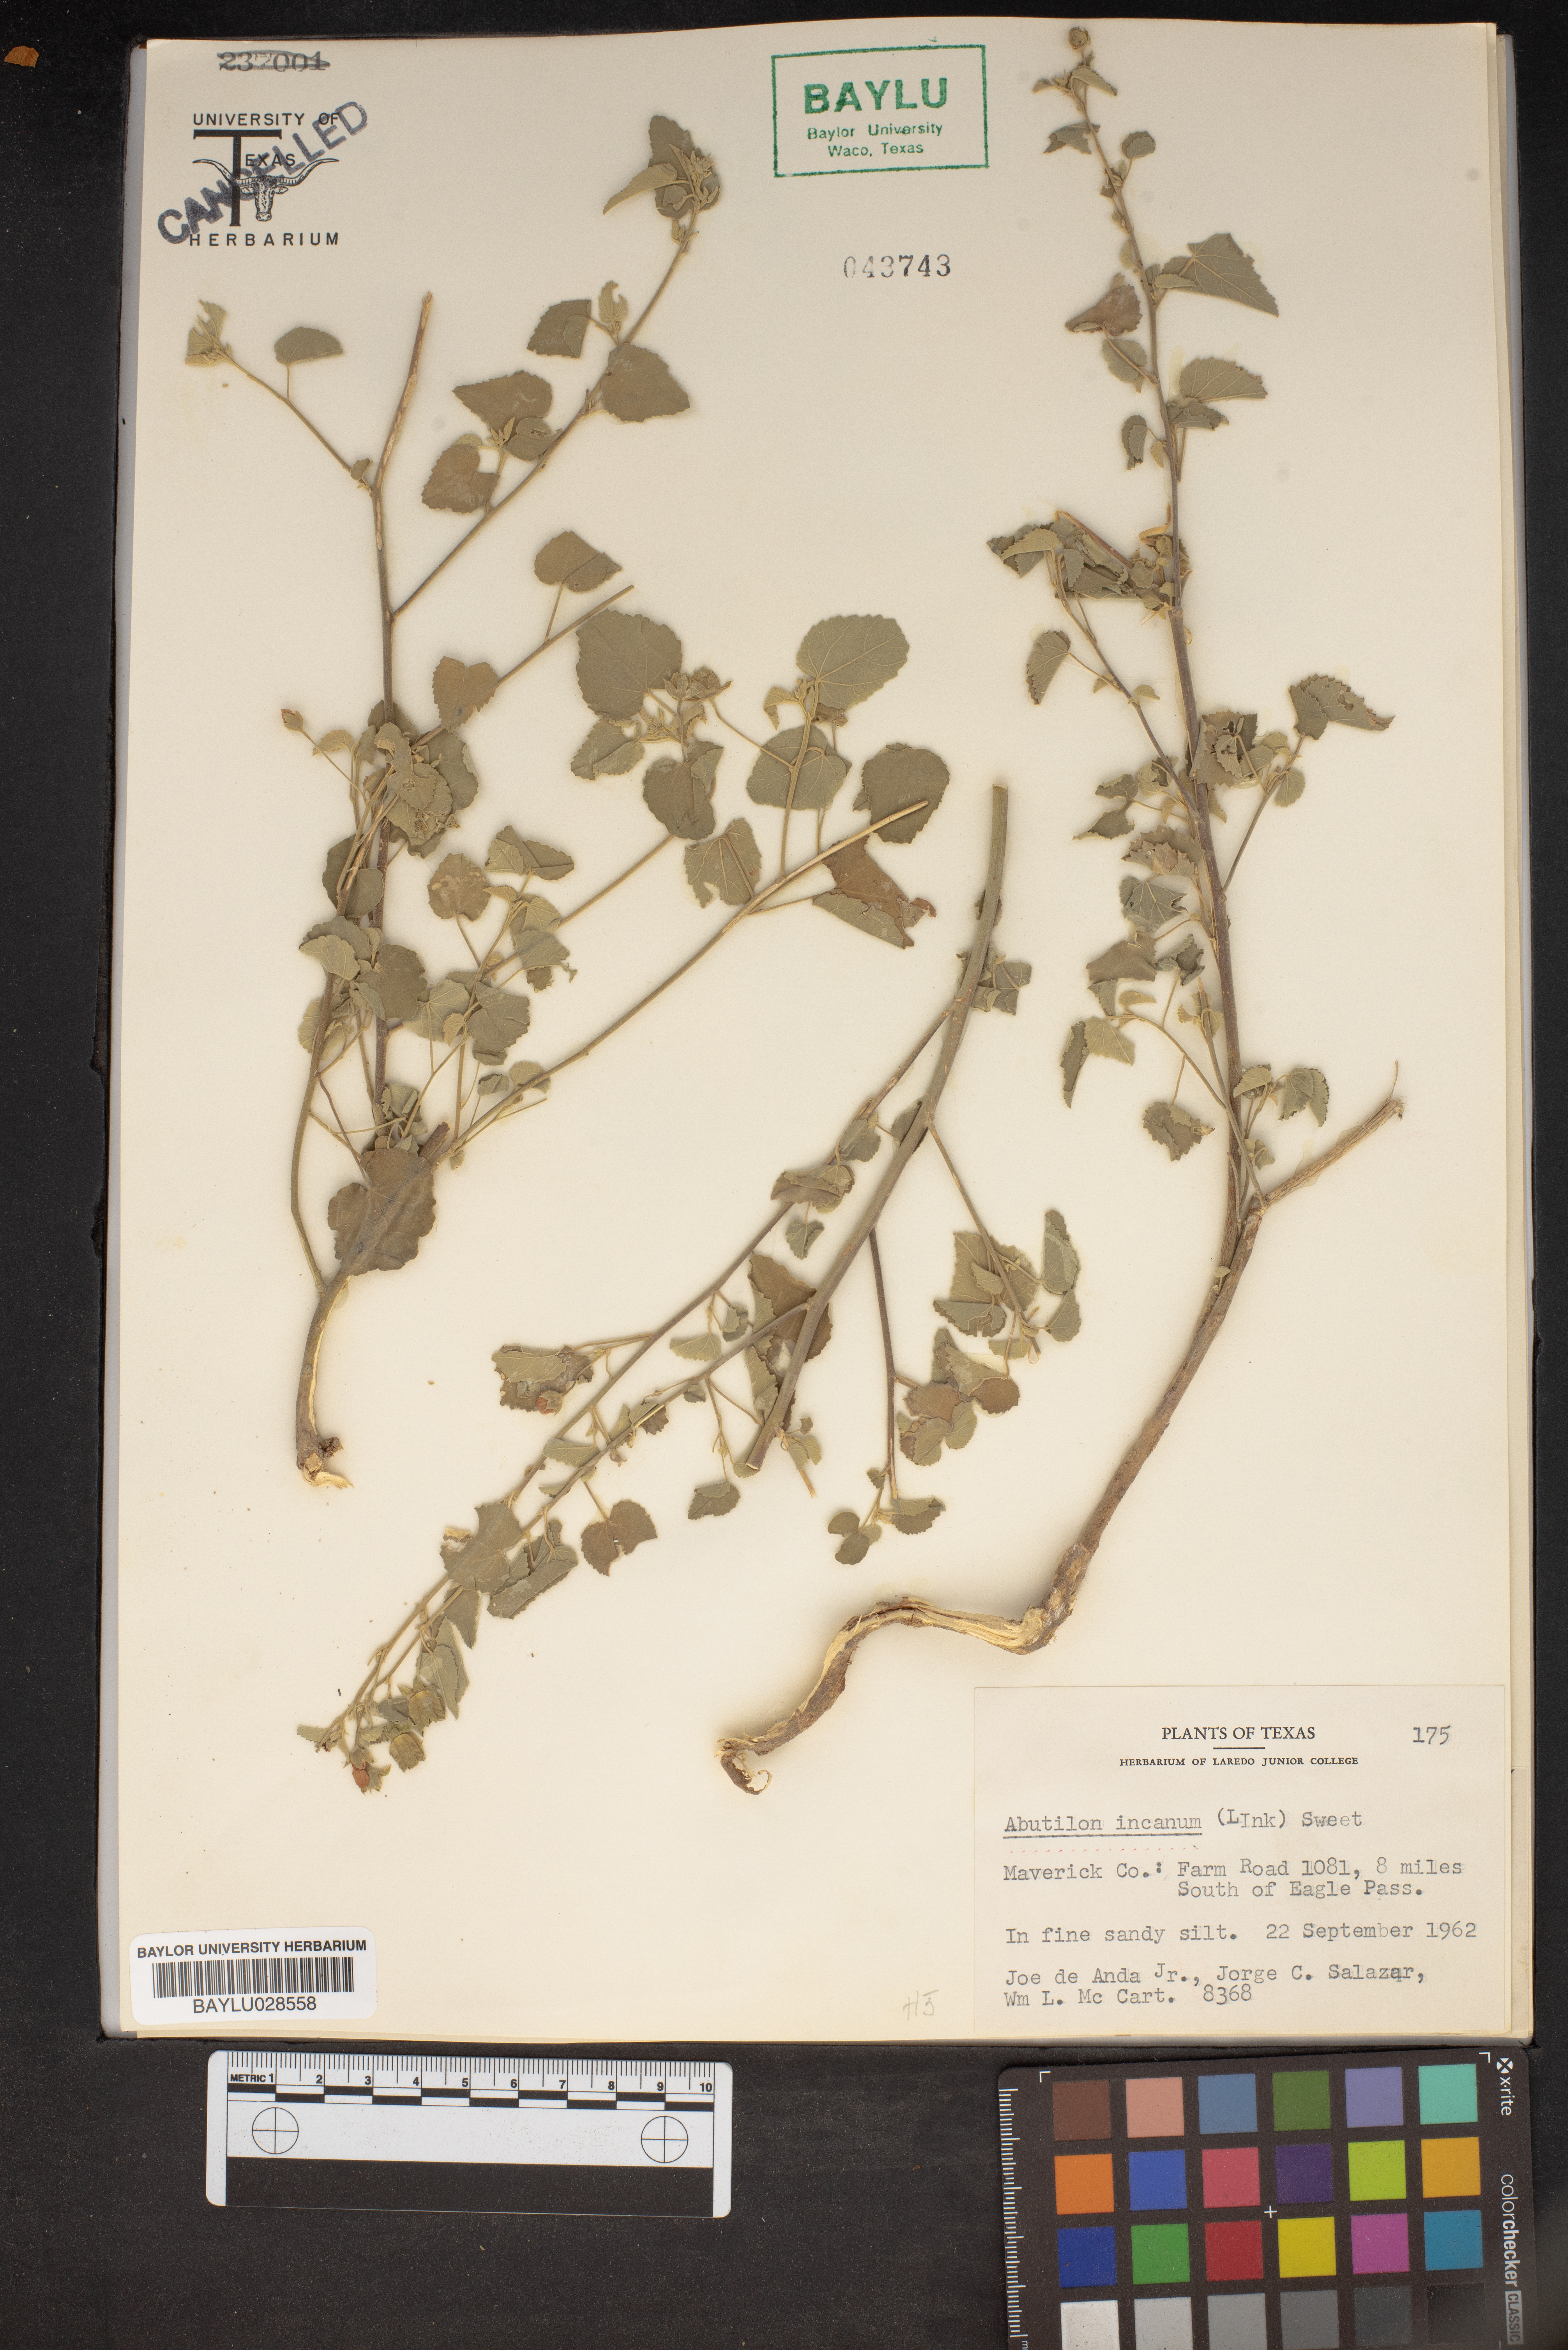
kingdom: Plantae
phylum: Tracheophyta
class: Magnoliopsida
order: Malvales
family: Malvaceae
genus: Abutilon
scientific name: Abutilon incanum
